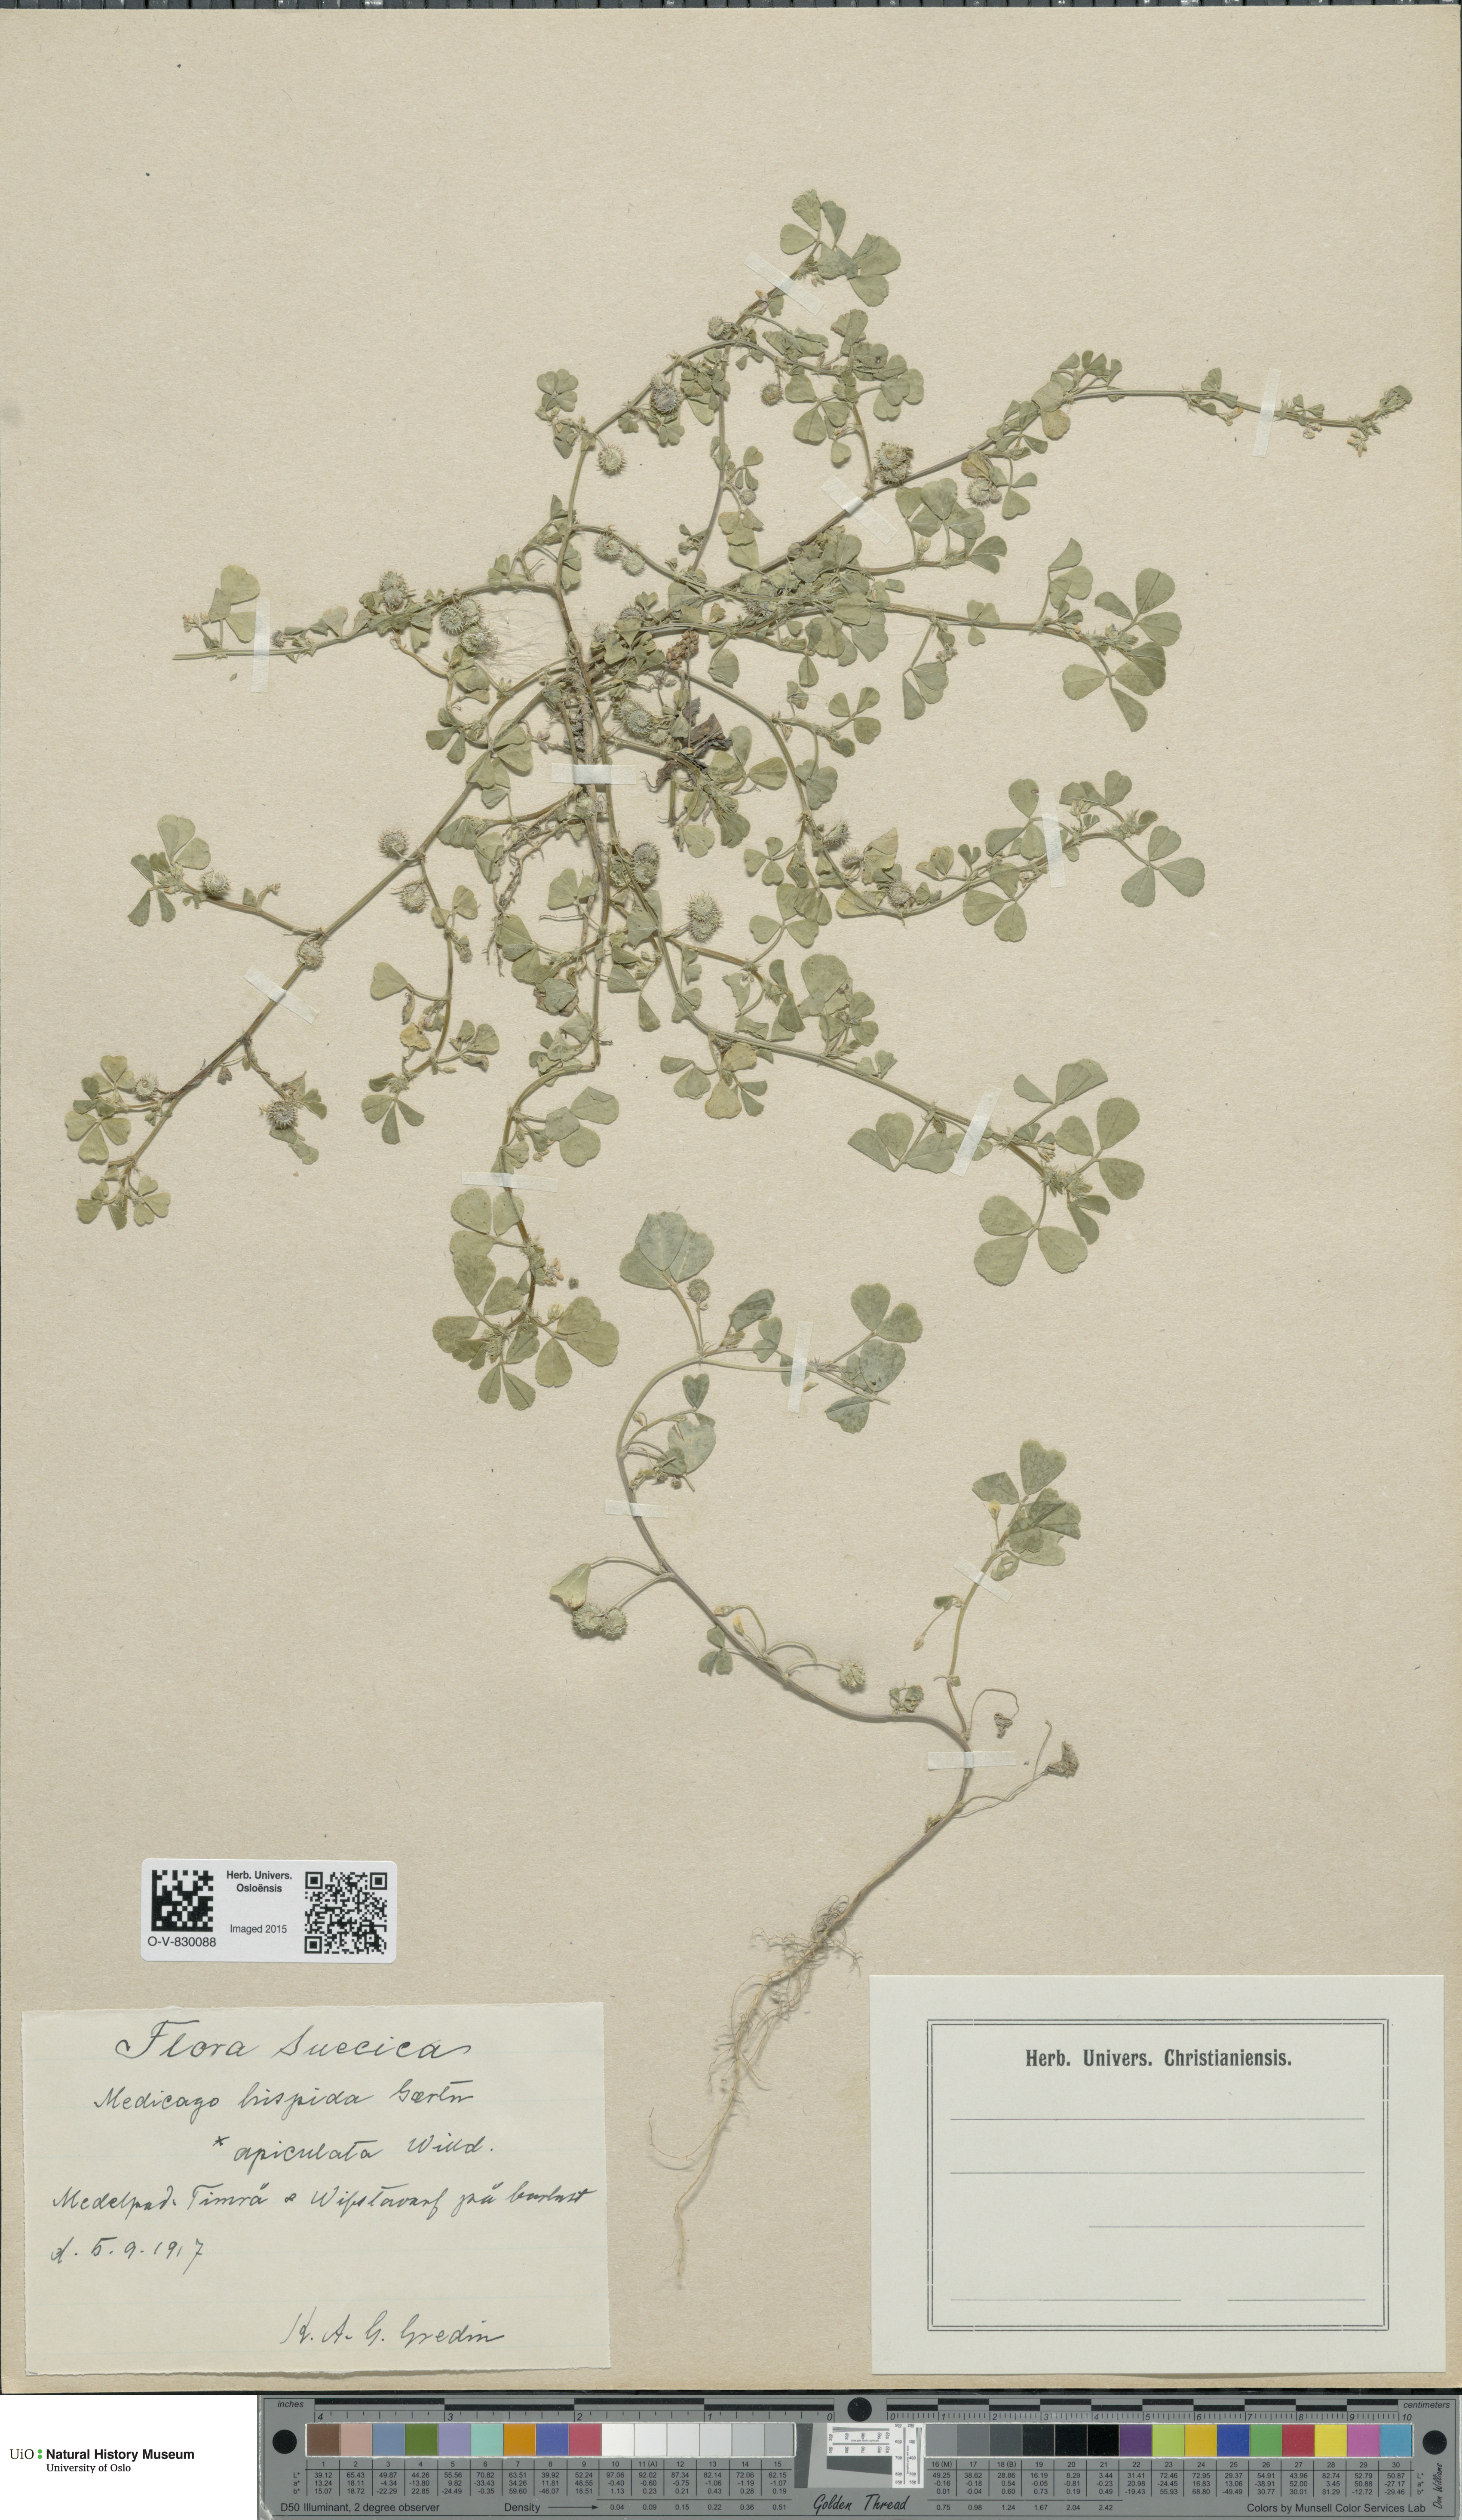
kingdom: Plantae
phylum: Tracheophyta
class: Magnoliopsida
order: Fabales
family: Fabaceae
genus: Medicago
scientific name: Medicago polymorpha
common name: Burclover
